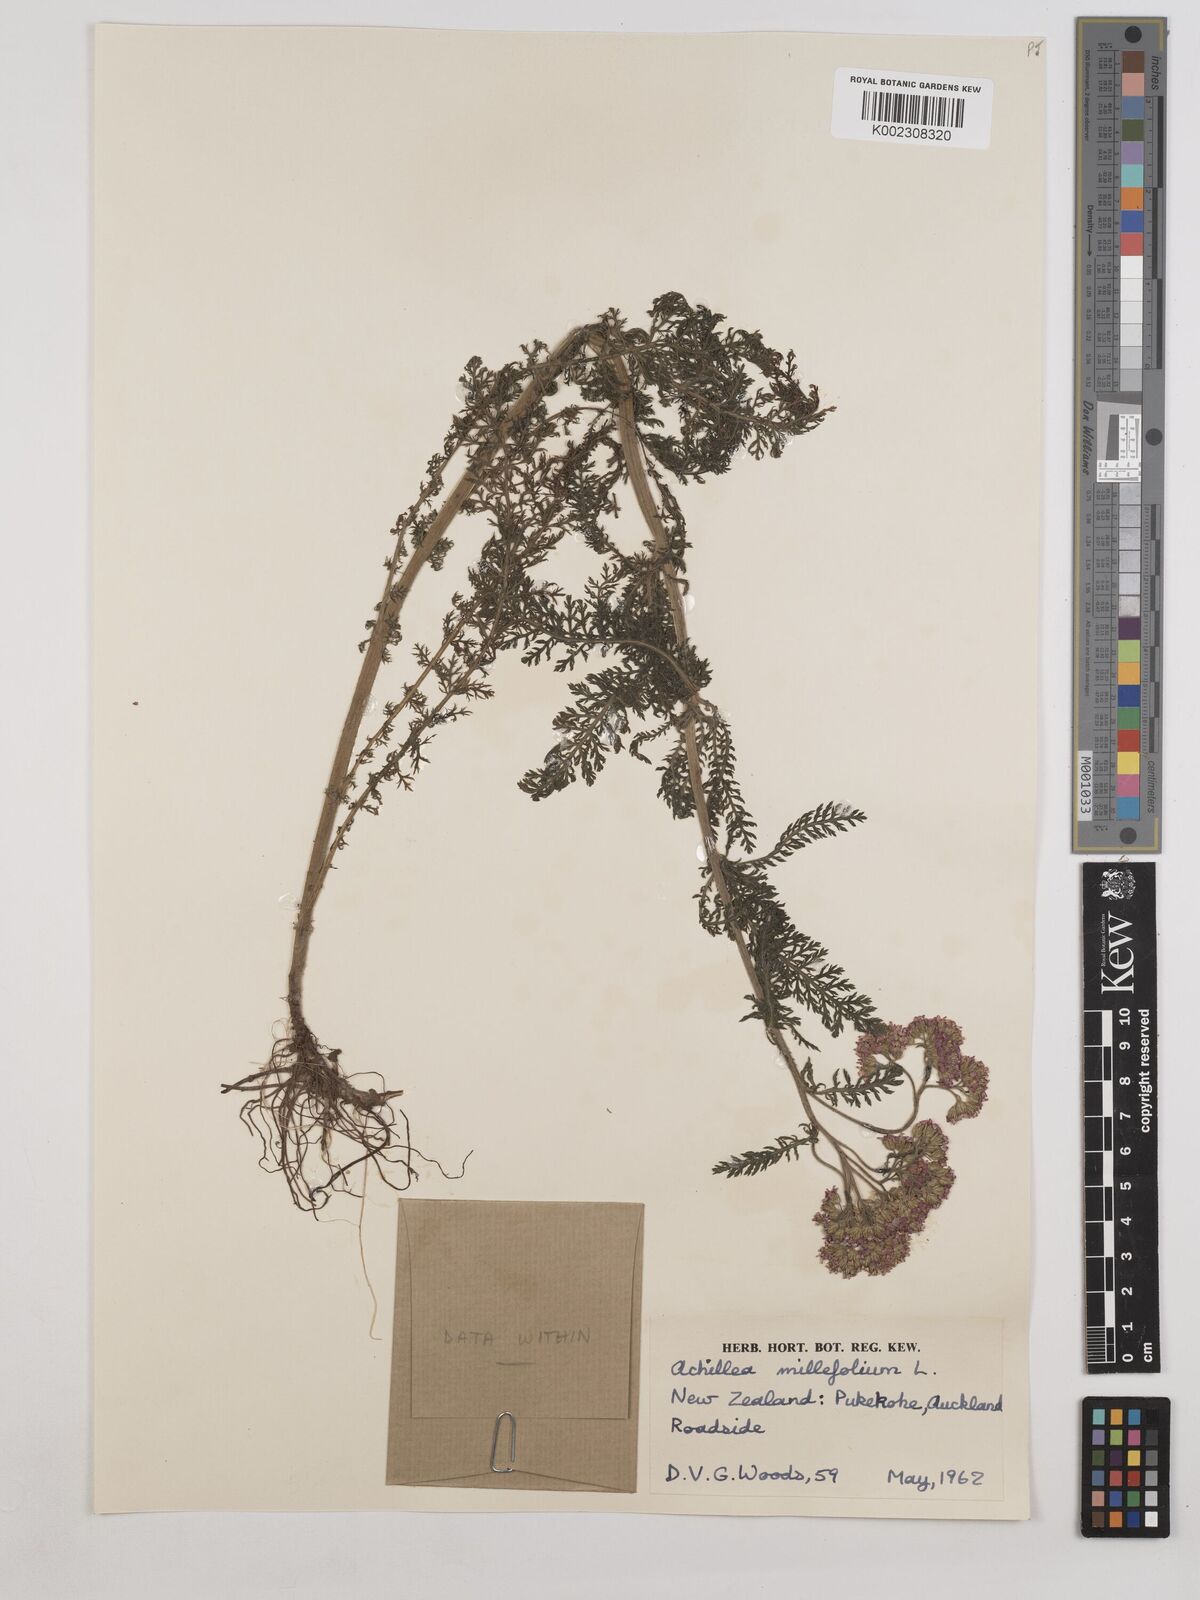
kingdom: Plantae
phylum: Tracheophyta
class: Magnoliopsida
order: Asterales
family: Asteraceae
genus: Achillea
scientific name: Achillea millefolium
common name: Yarrow
